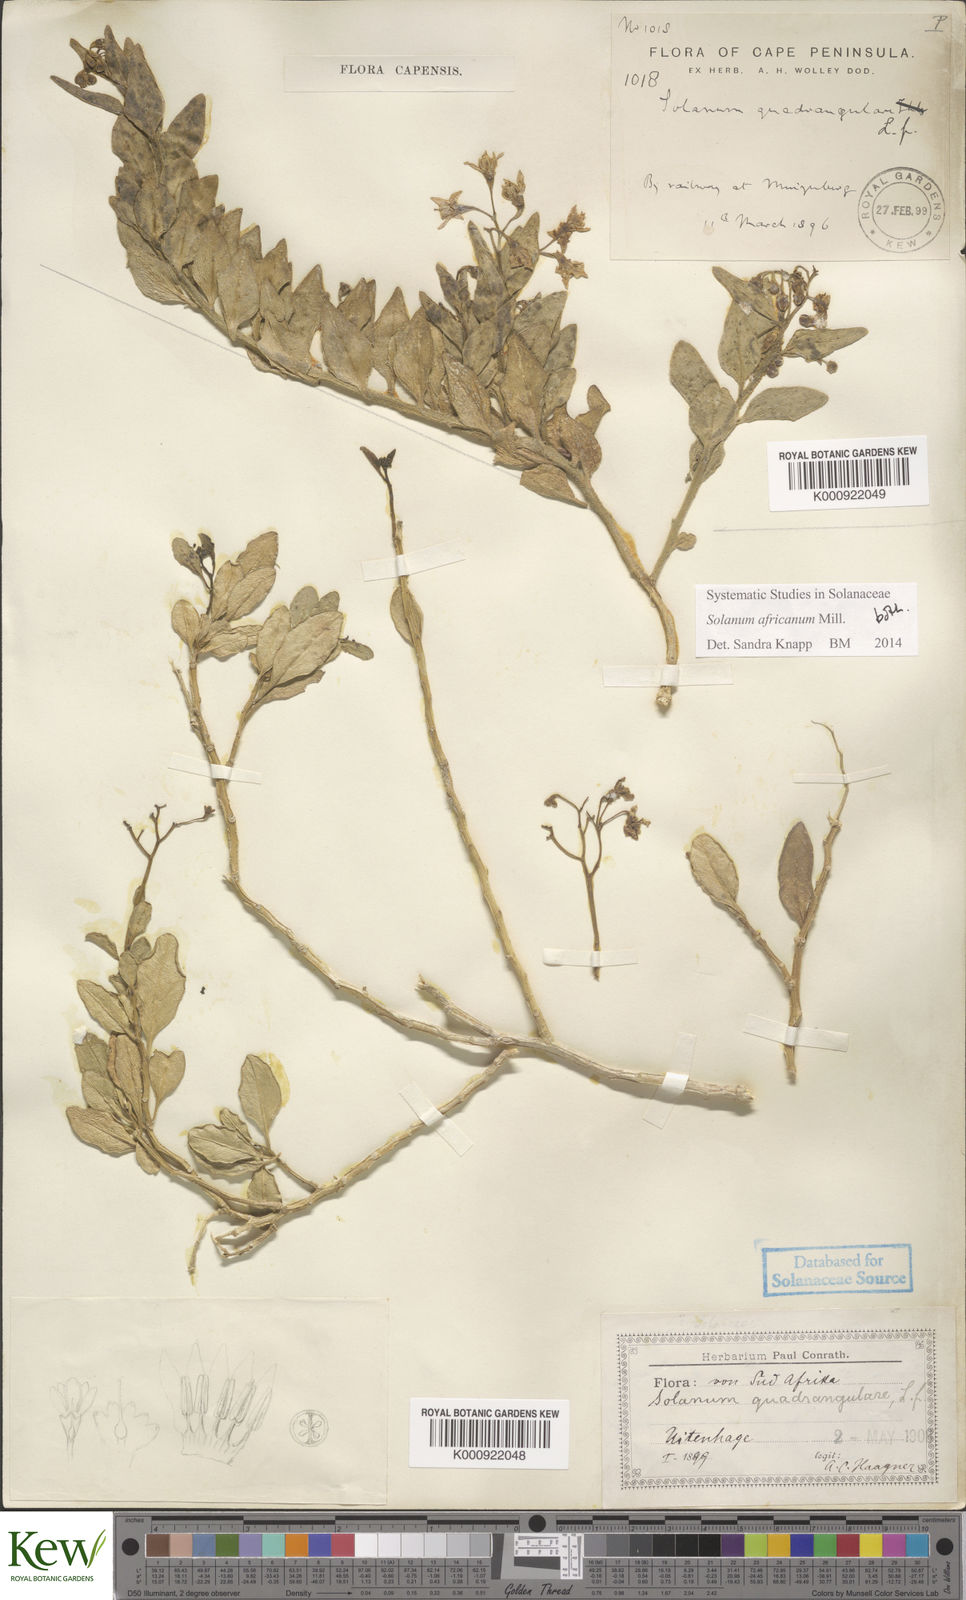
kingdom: Plantae
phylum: Tracheophyta
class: Magnoliopsida
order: Solanales
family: Solanaceae
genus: Solanum
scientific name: Solanum africanum
